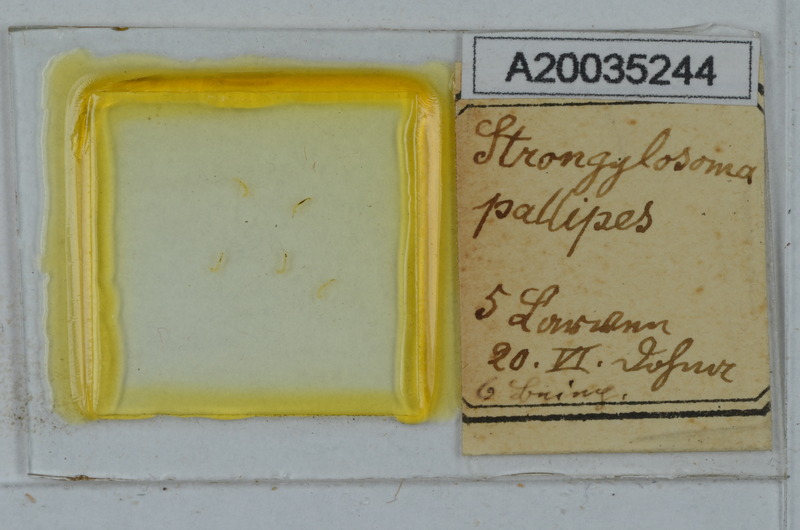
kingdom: Animalia
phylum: Arthropoda
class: Diplopoda
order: Polydesmida
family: Paradoxosomatidae
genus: Strongylosoma
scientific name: Strongylosoma stigmatosus
